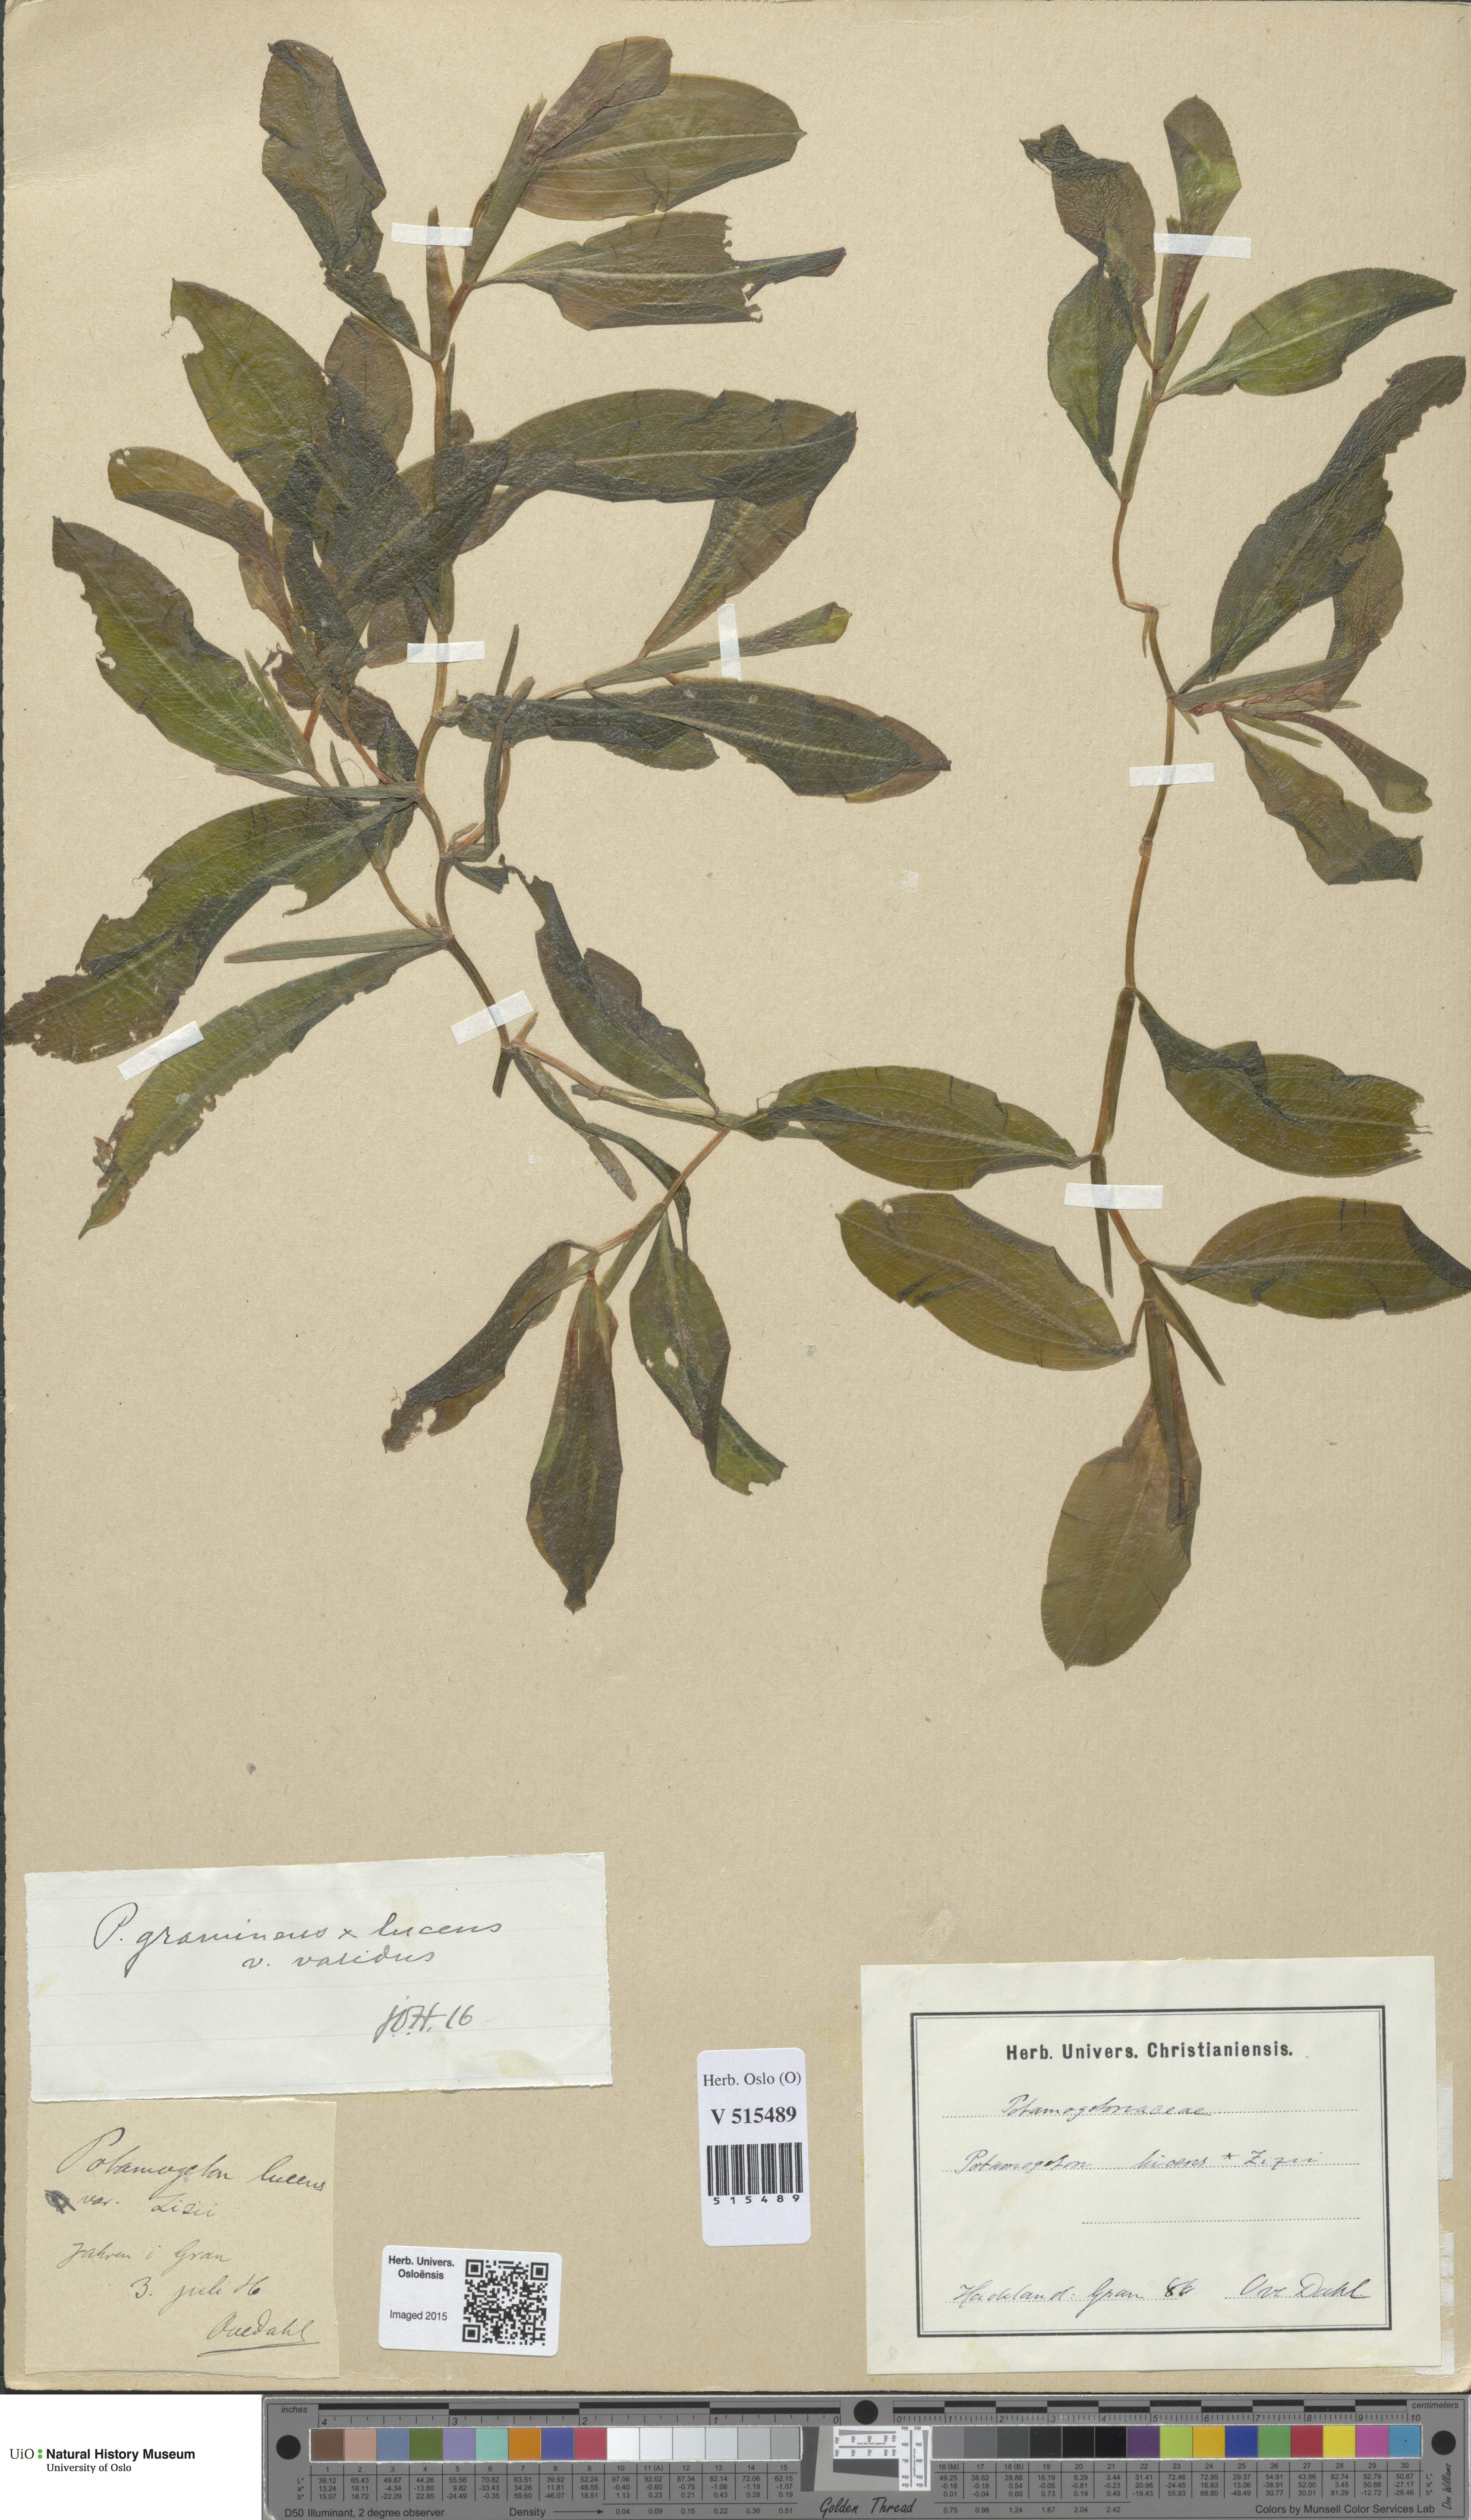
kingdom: Plantae
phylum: Tracheophyta
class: Liliopsida
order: Alismatales
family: Potamogetonaceae
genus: Potamogeton
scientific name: Potamogeton angustifolius
